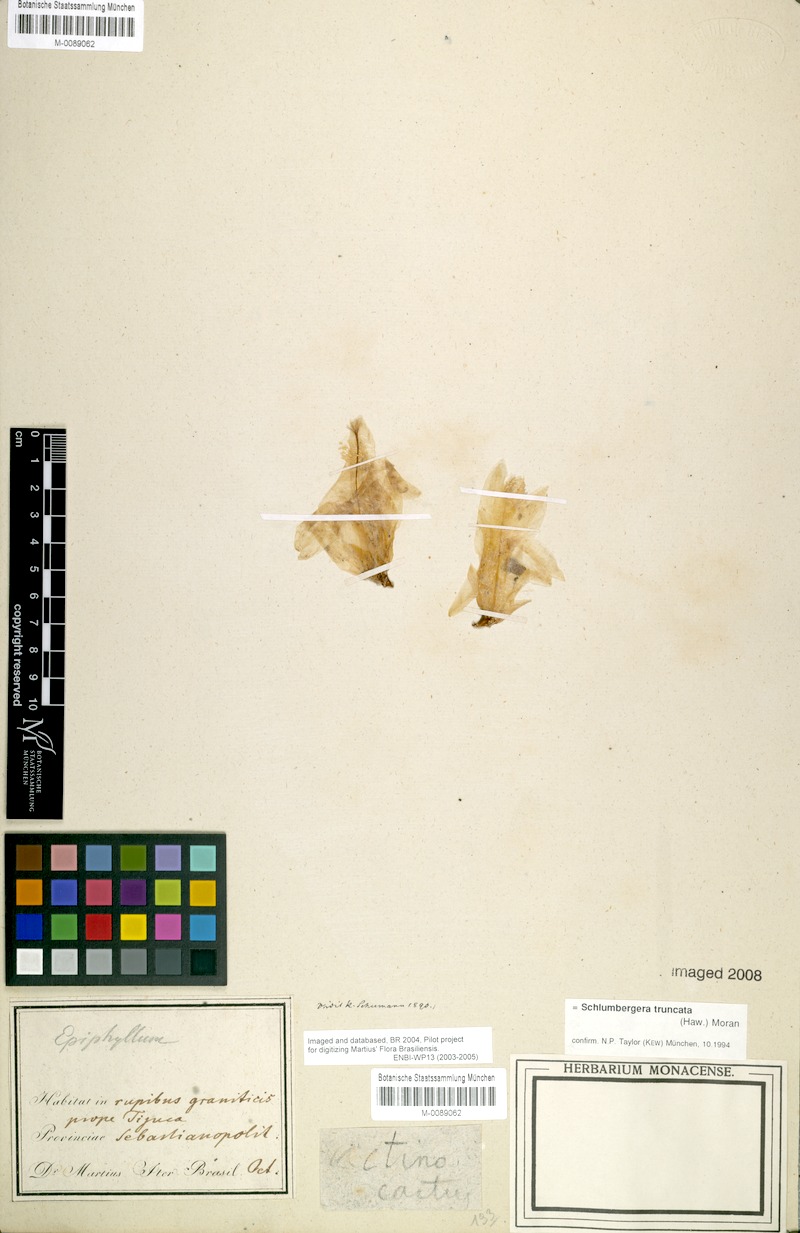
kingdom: Plantae
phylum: Tracheophyta
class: Magnoliopsida
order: Caryophyllales
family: Cactaceae
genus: Schlumbergera
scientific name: Schlumbergera truncata
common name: Thanksgiving cactus
